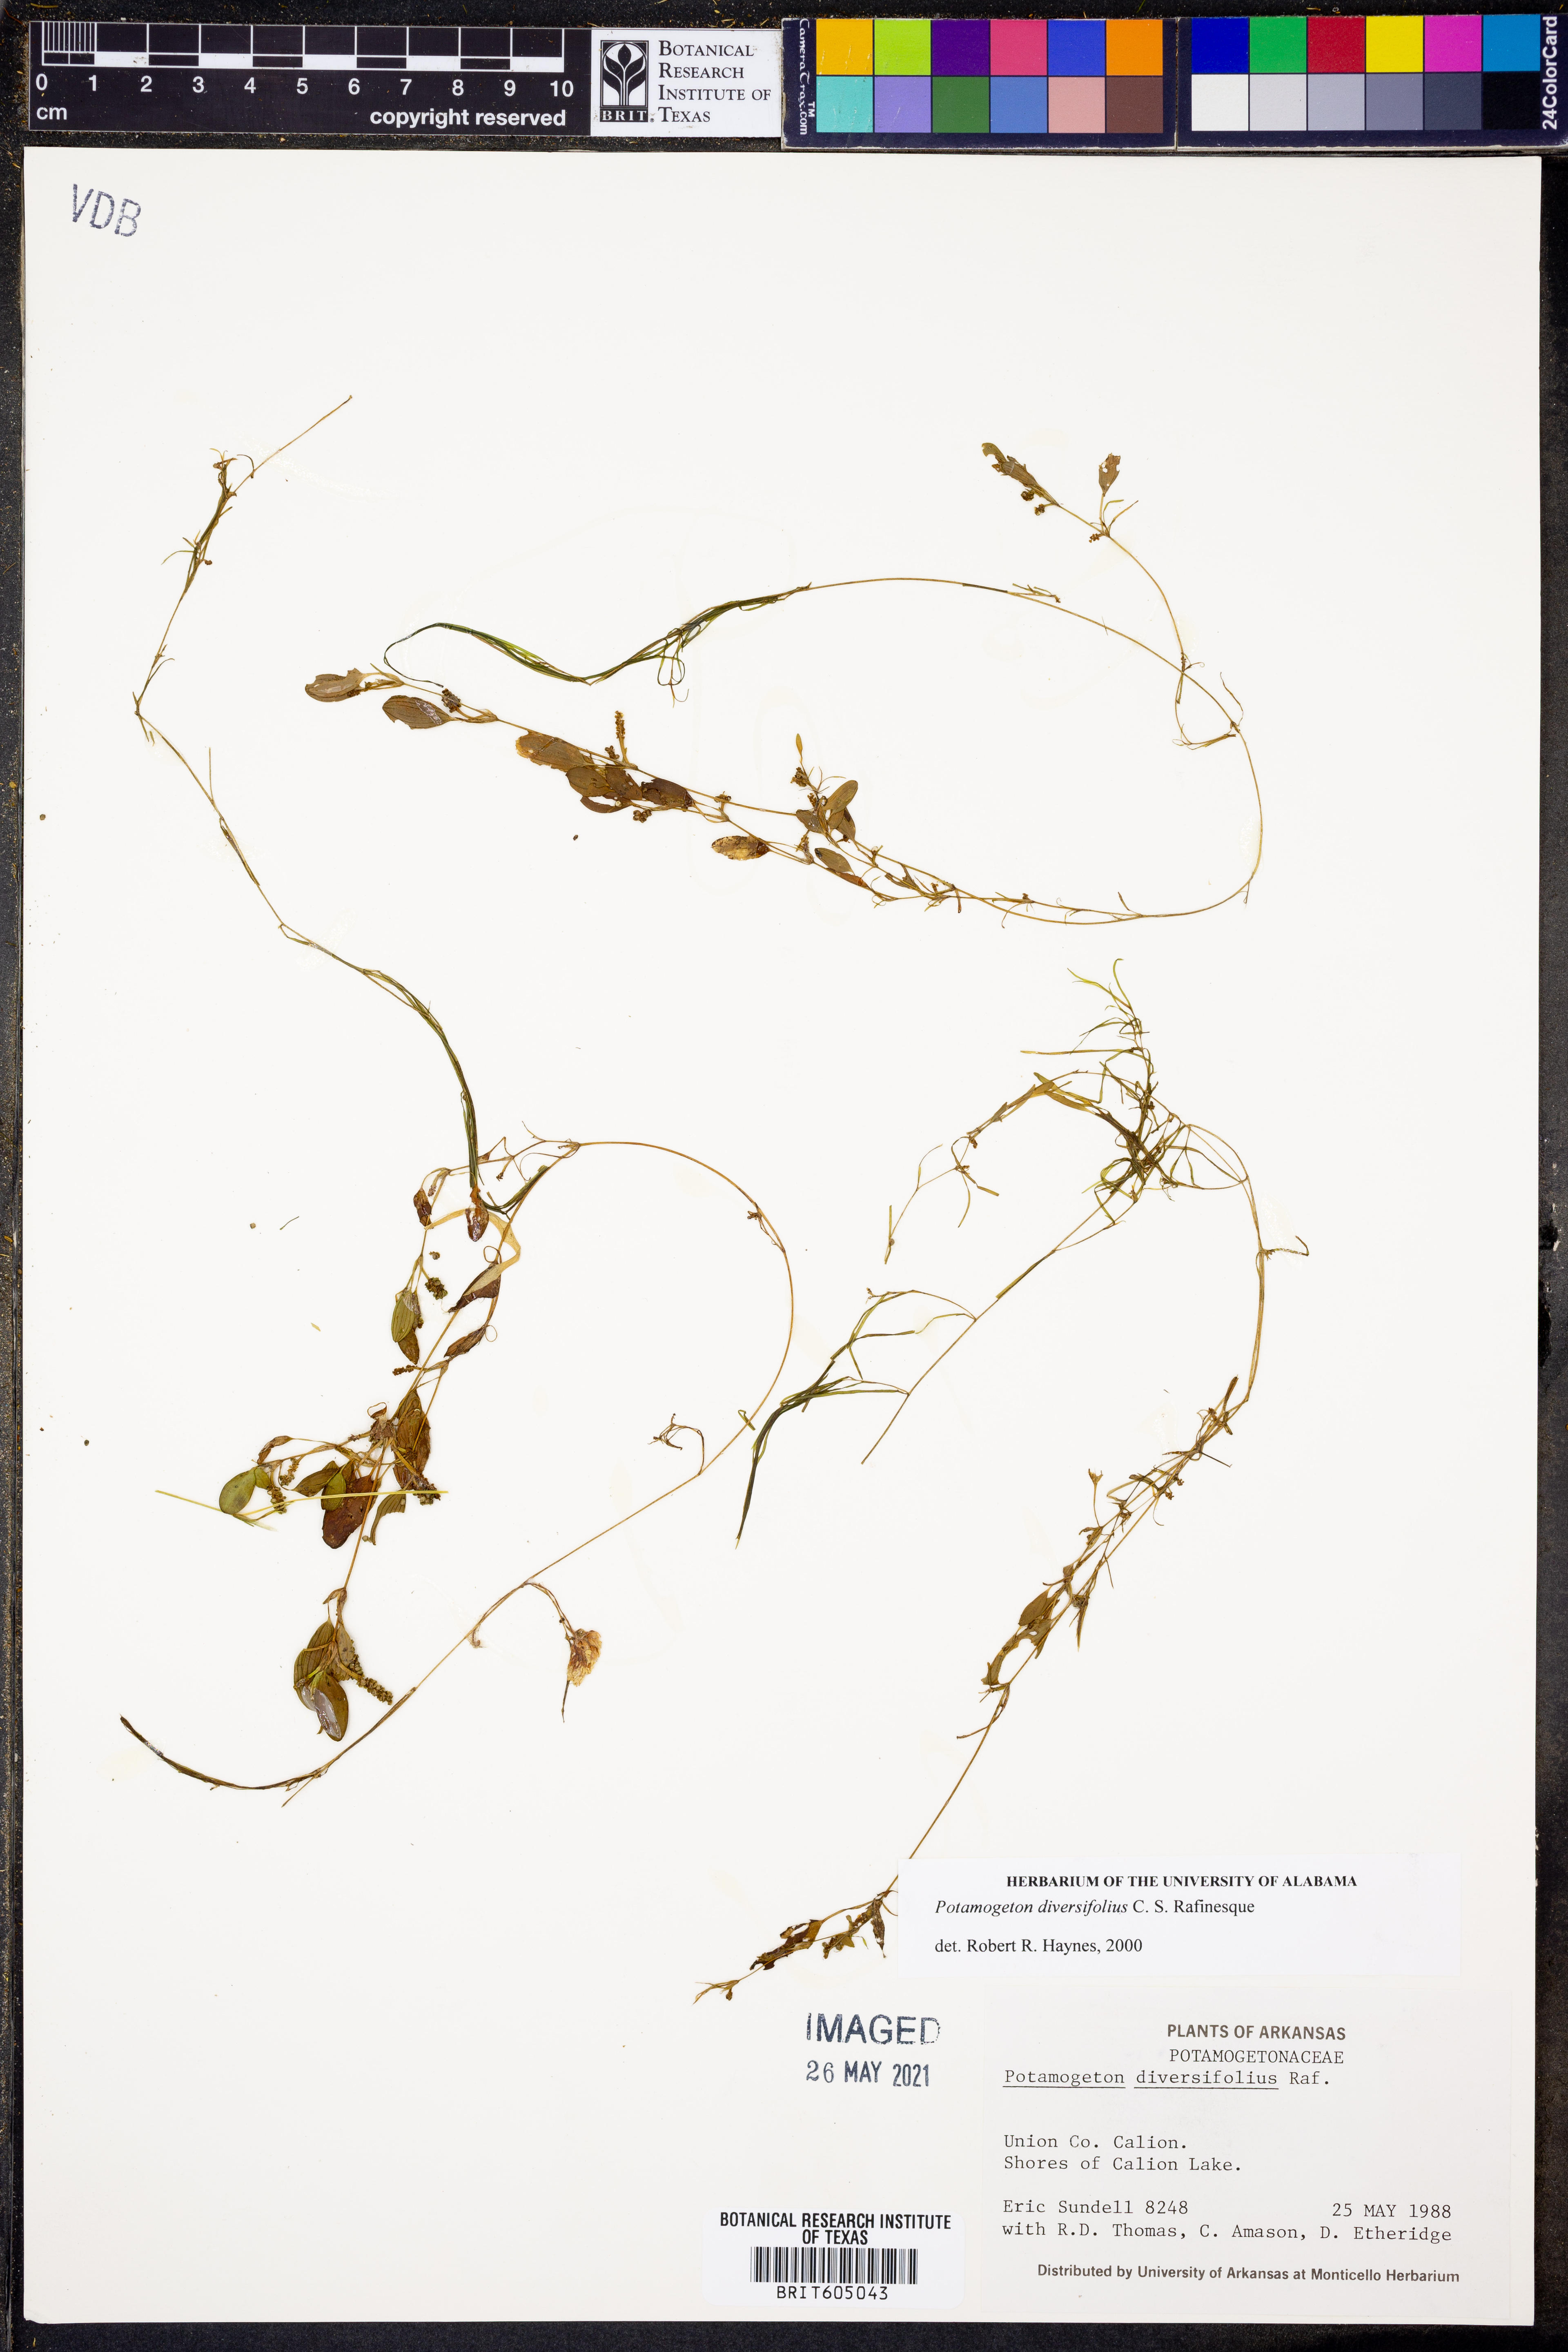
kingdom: Plantae
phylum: Tracheophyta
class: Liliopsida
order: Alismatales
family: Potamogetonaceae
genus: Potamogeton
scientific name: Potamogeton diversifolius
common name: Water-thread pondweed
